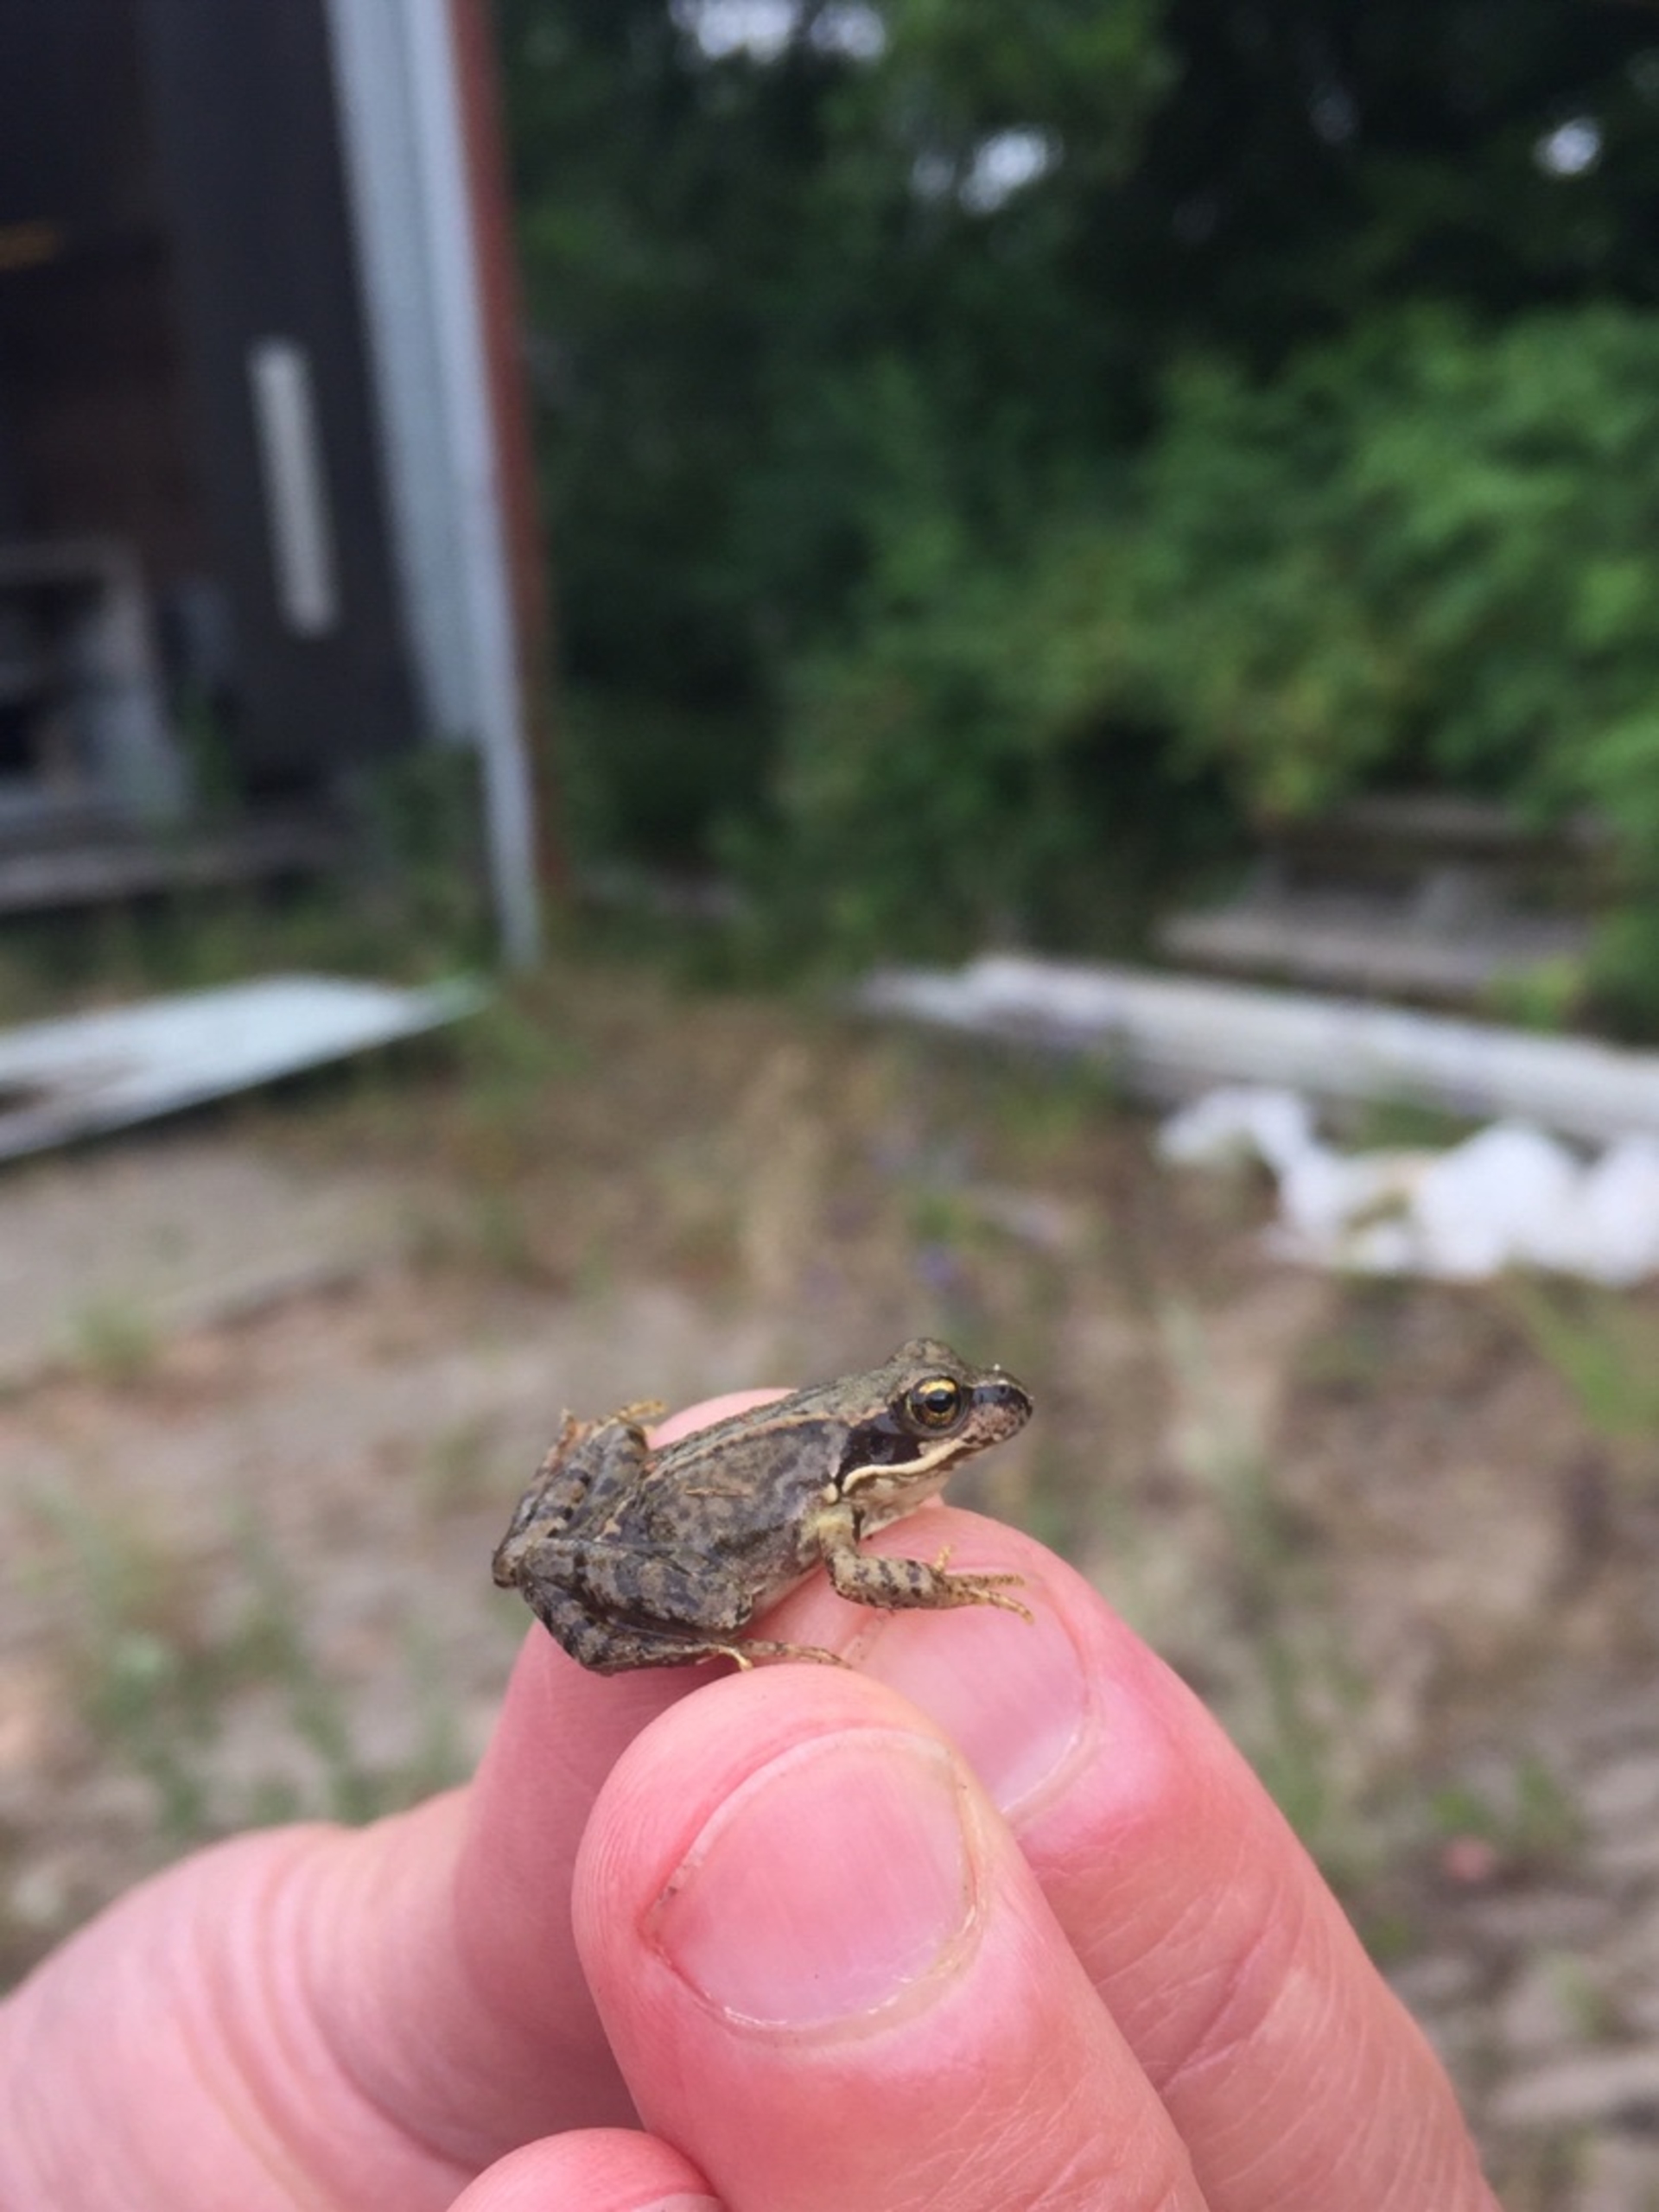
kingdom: Animalia
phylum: Chordata
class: Amphibia
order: Anura
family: Ranidae
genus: Rana
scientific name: Rana temporaria
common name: Butsnudet frø
